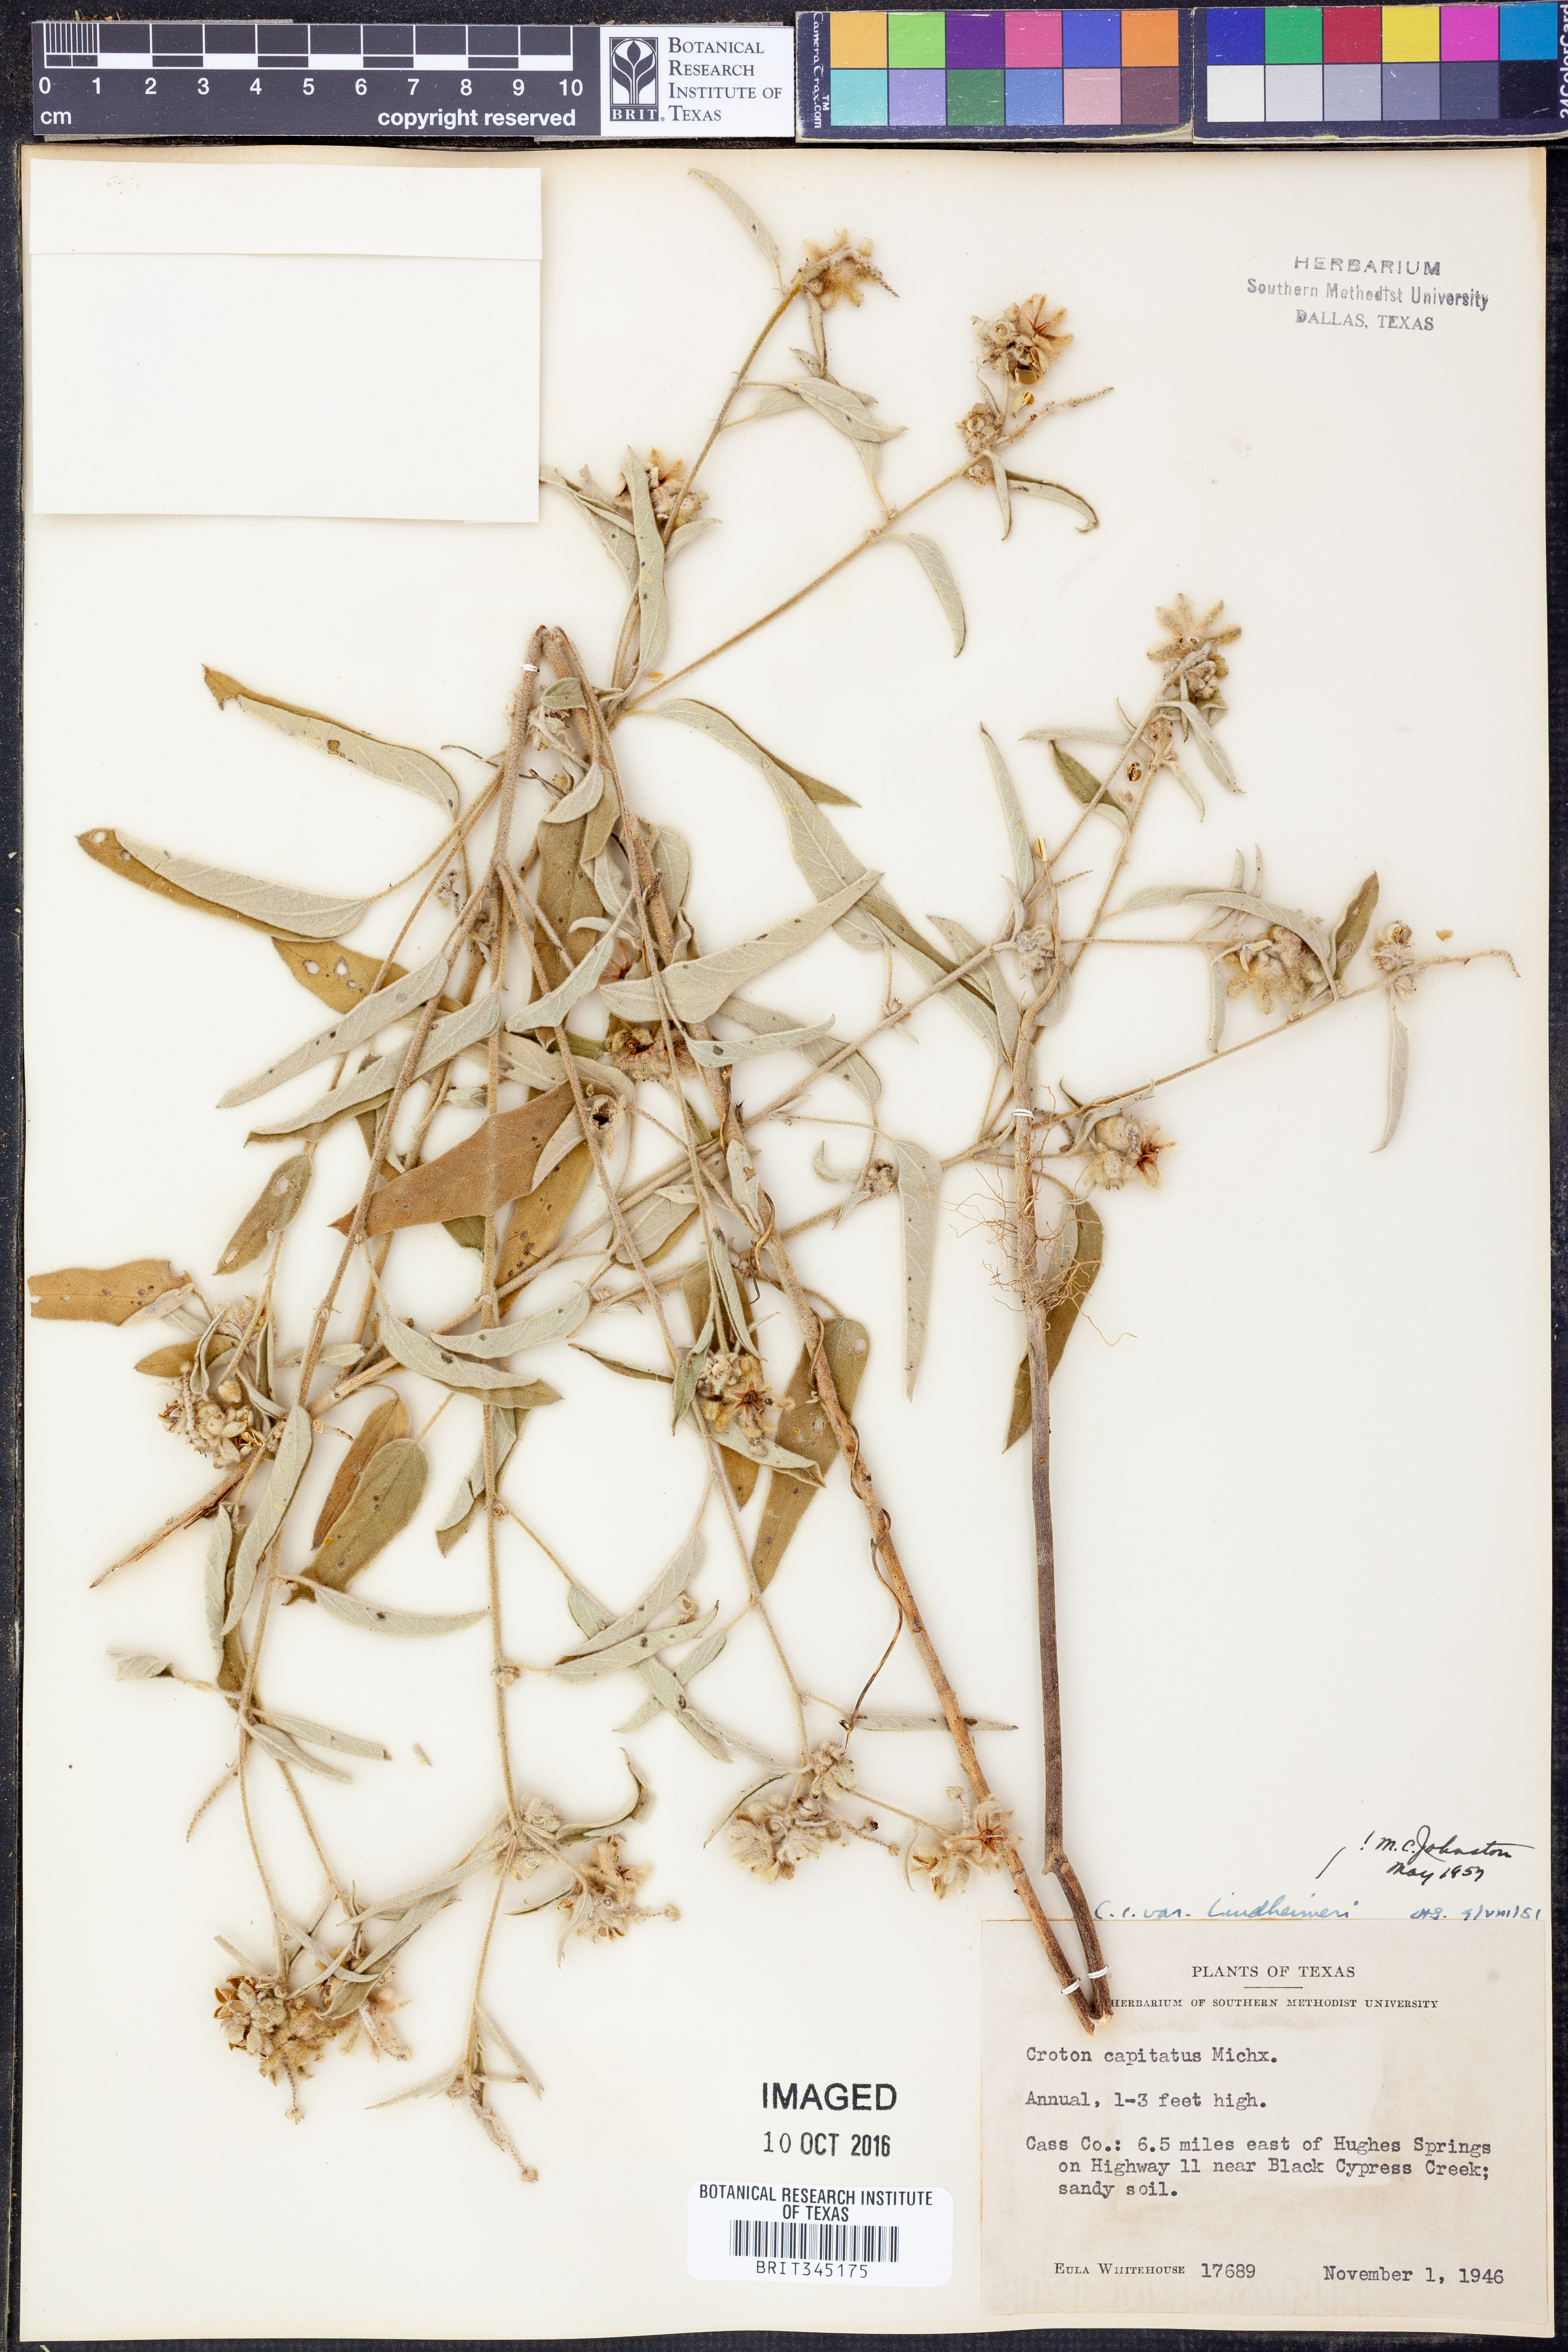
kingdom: Plantae
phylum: Tracheophyta
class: Magnoliopsida
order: Malpighiales
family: Euphorbiaceae
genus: Croton
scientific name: Croton lindheimeri
